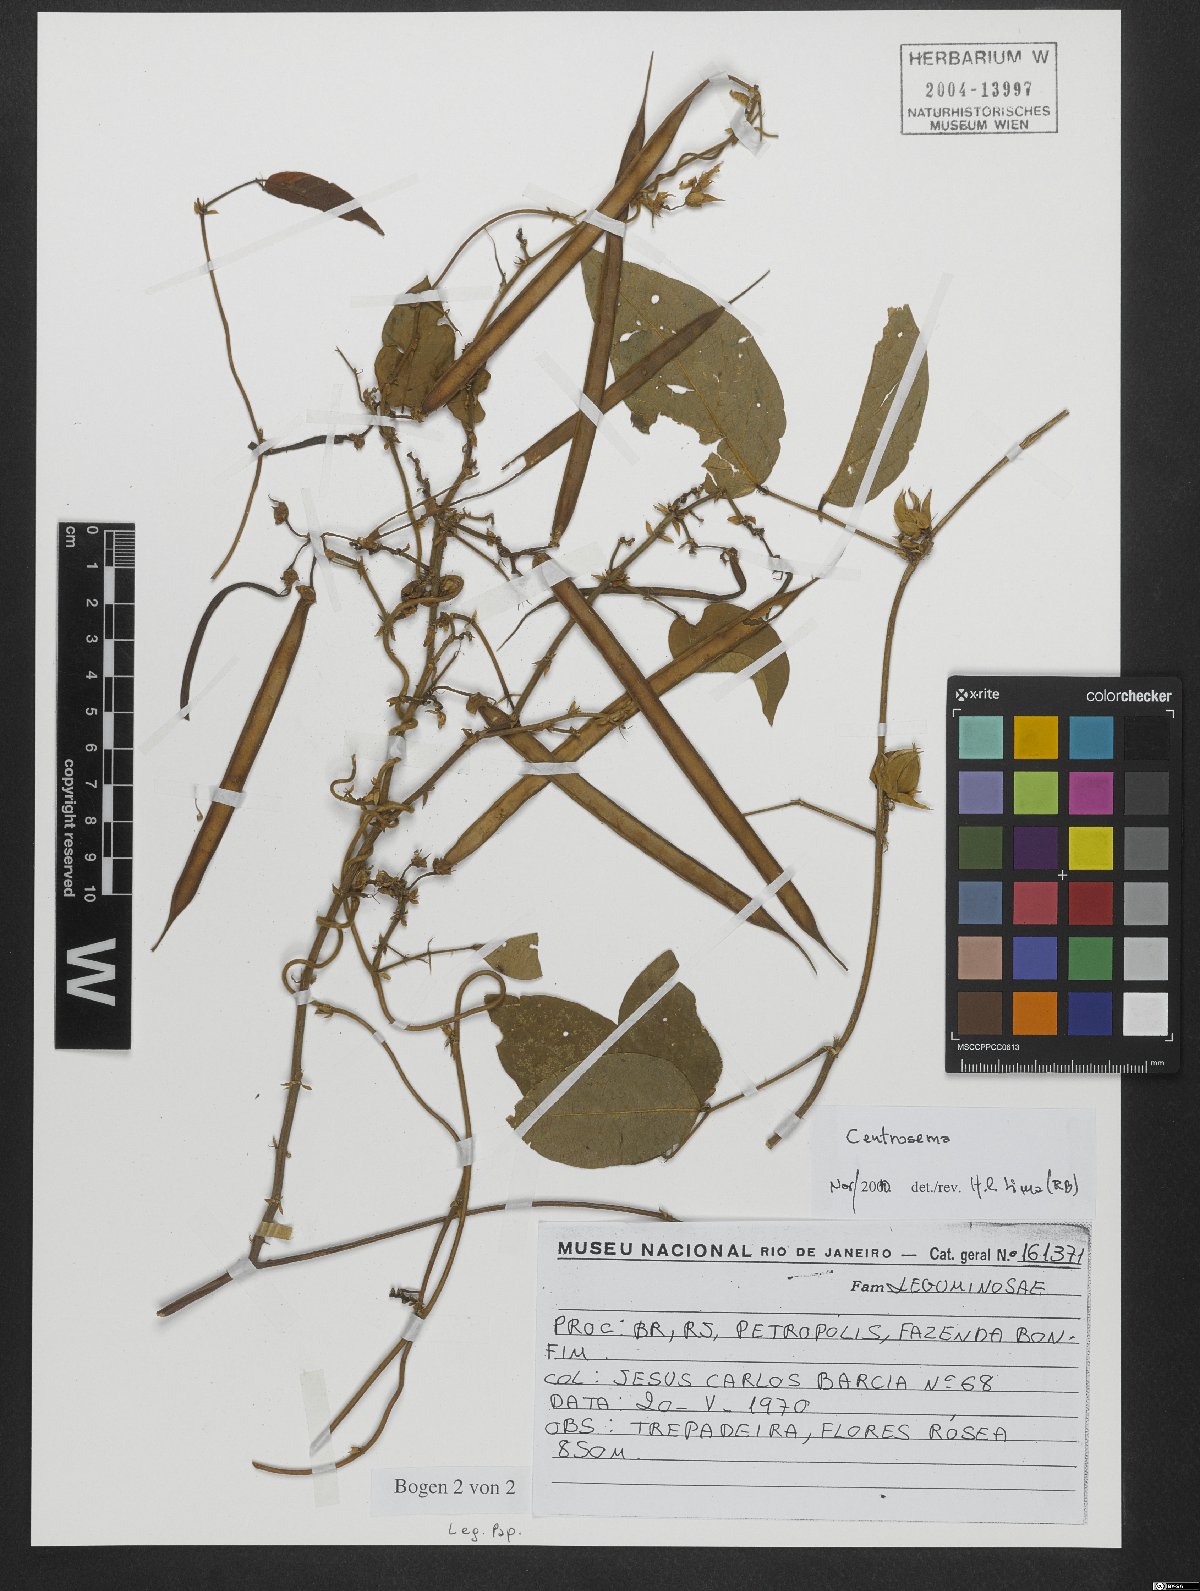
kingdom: Plantae
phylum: Tracheophyta
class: Magnoliopsida
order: Fabales
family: Fabaceae
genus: Centrosema
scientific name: Centrosema
